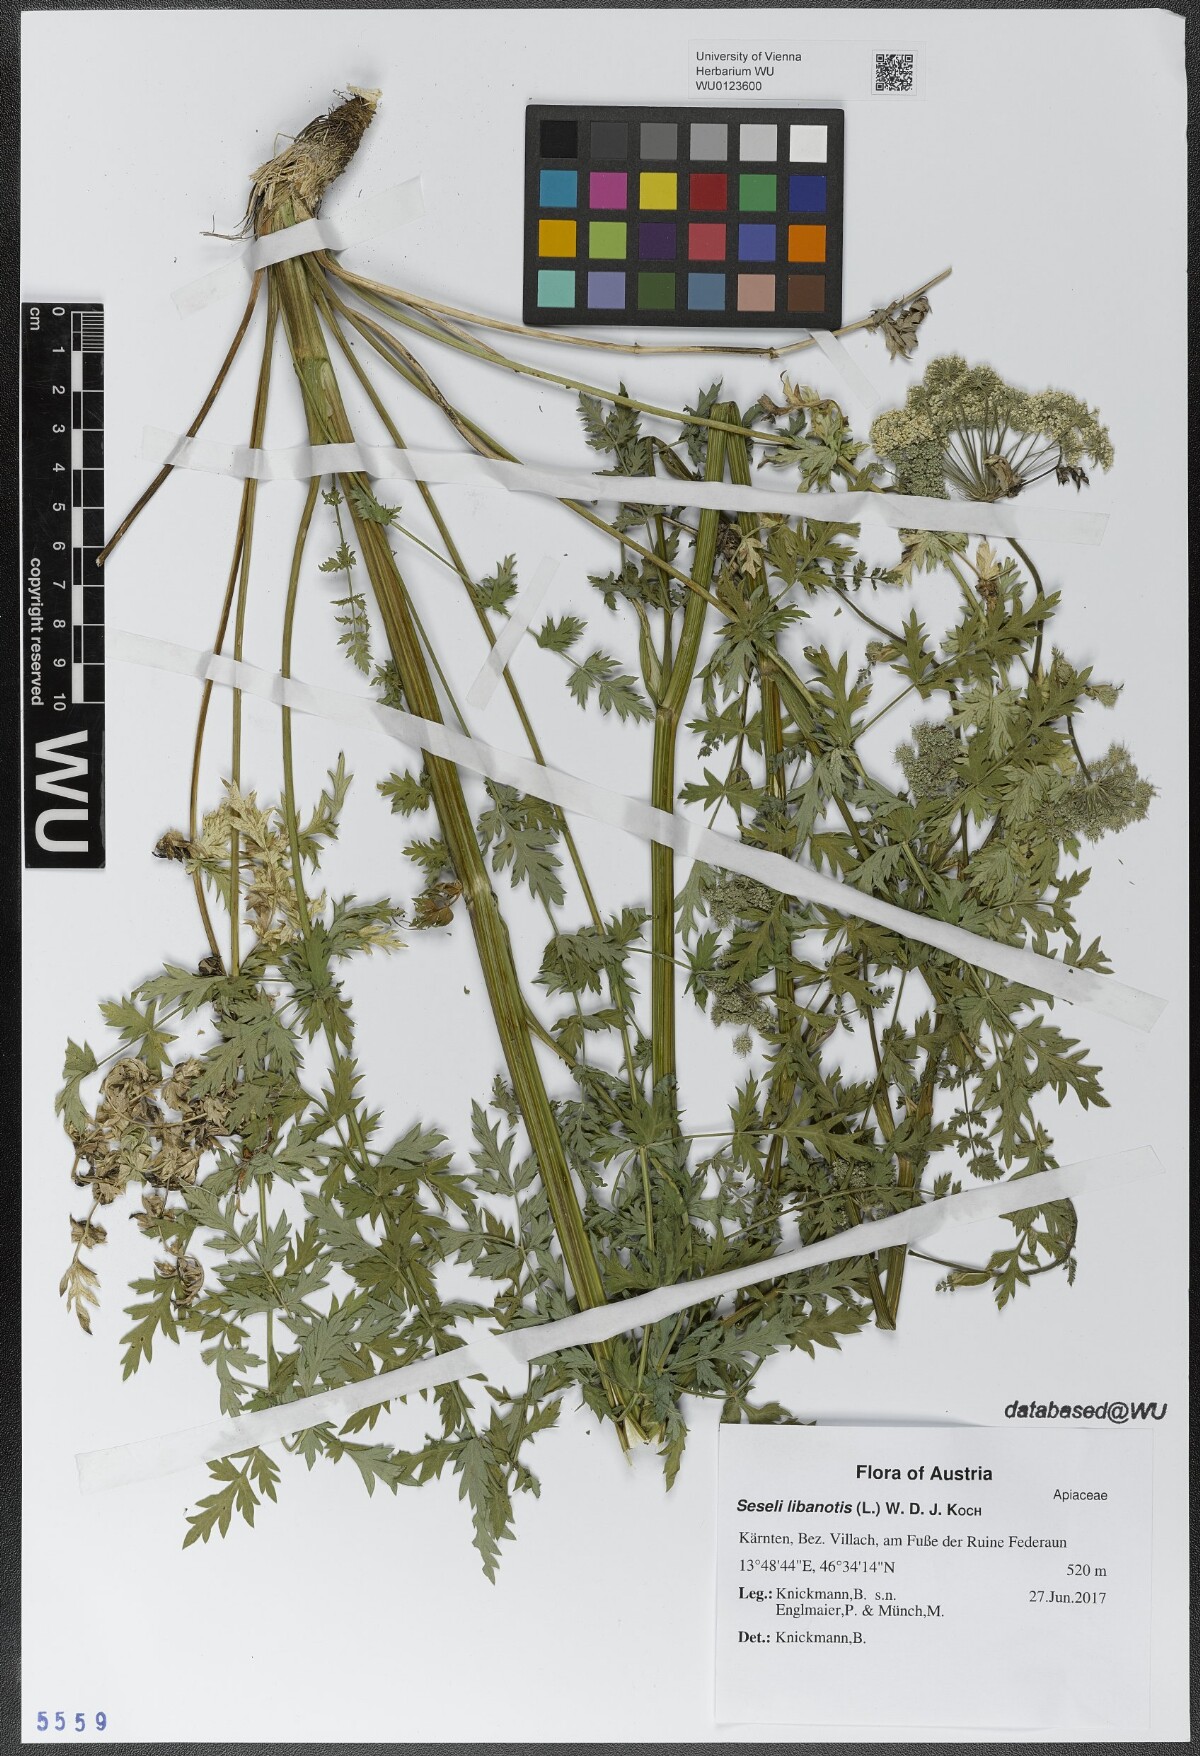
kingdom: Plantae
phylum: Tracheophyta
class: Magnoliopsida
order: Apiales
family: Apiaceae
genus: Seseli
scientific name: Seseli libanotis
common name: Mooncarrot
